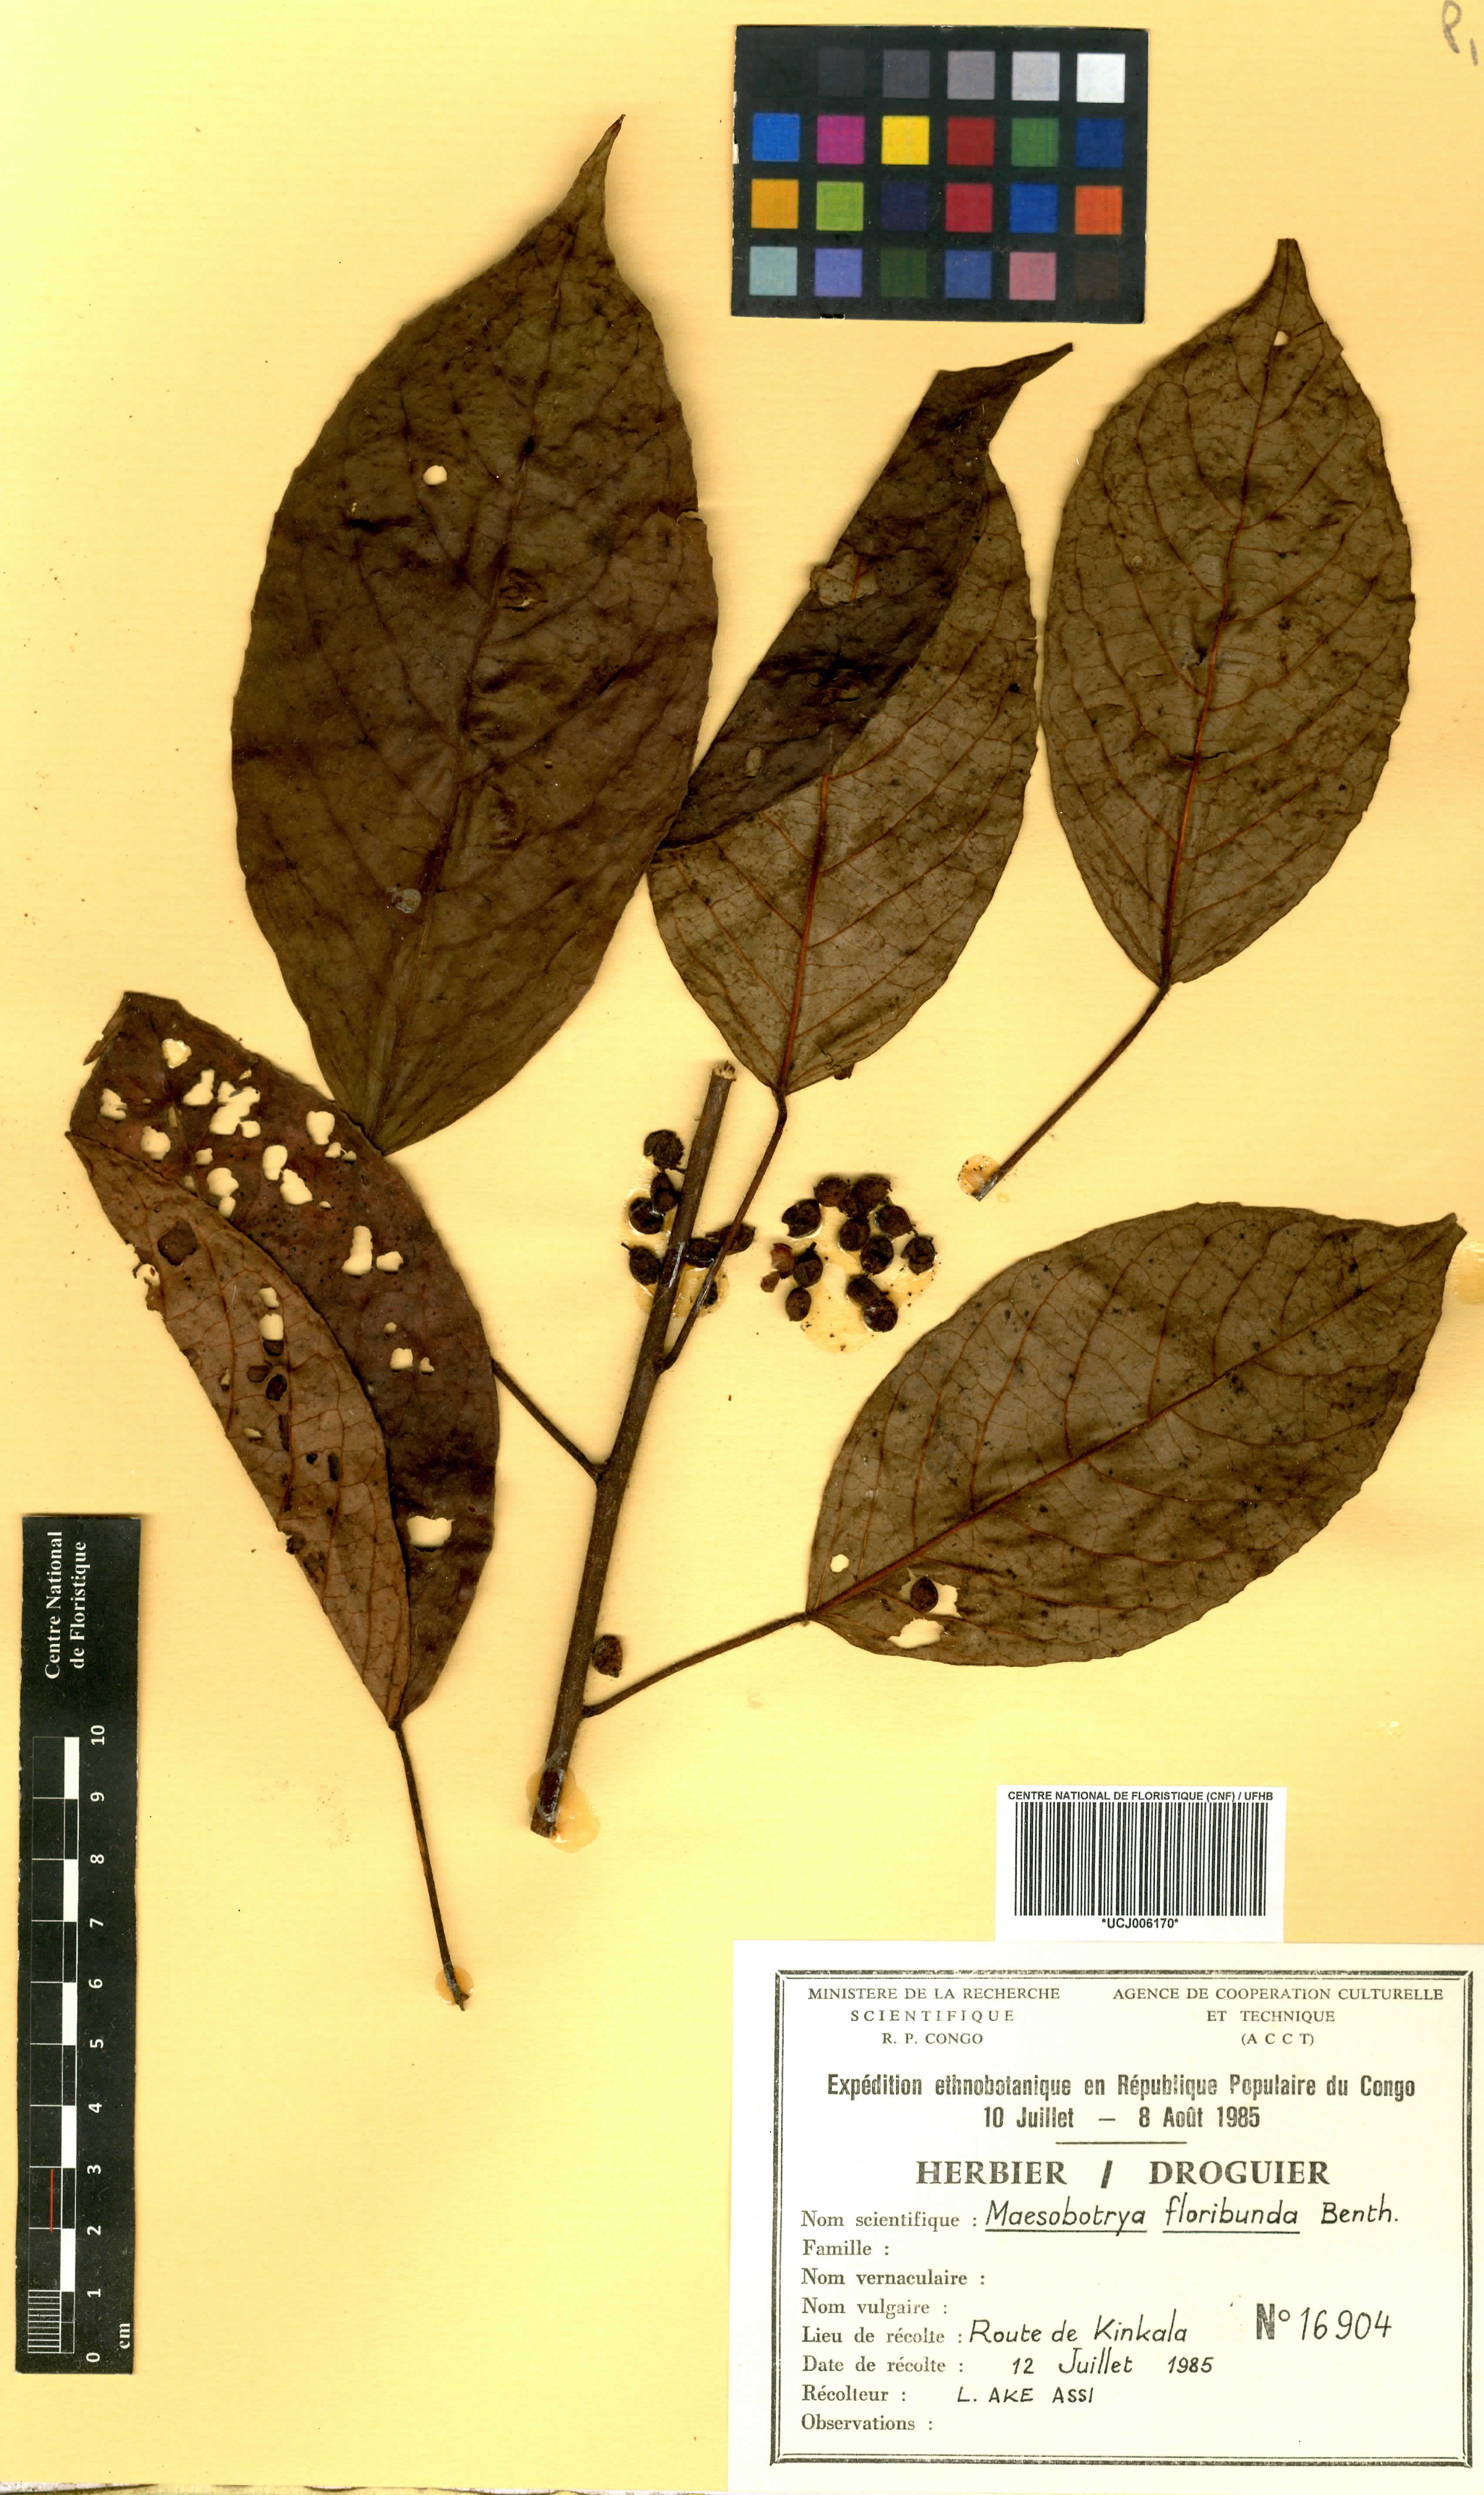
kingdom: Plantae
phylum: Tracheophyta
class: Magnoliopsida
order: Malpighiales
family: Phyllanthaceae
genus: Maesobotrya
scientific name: Maesobotrya floribunda
